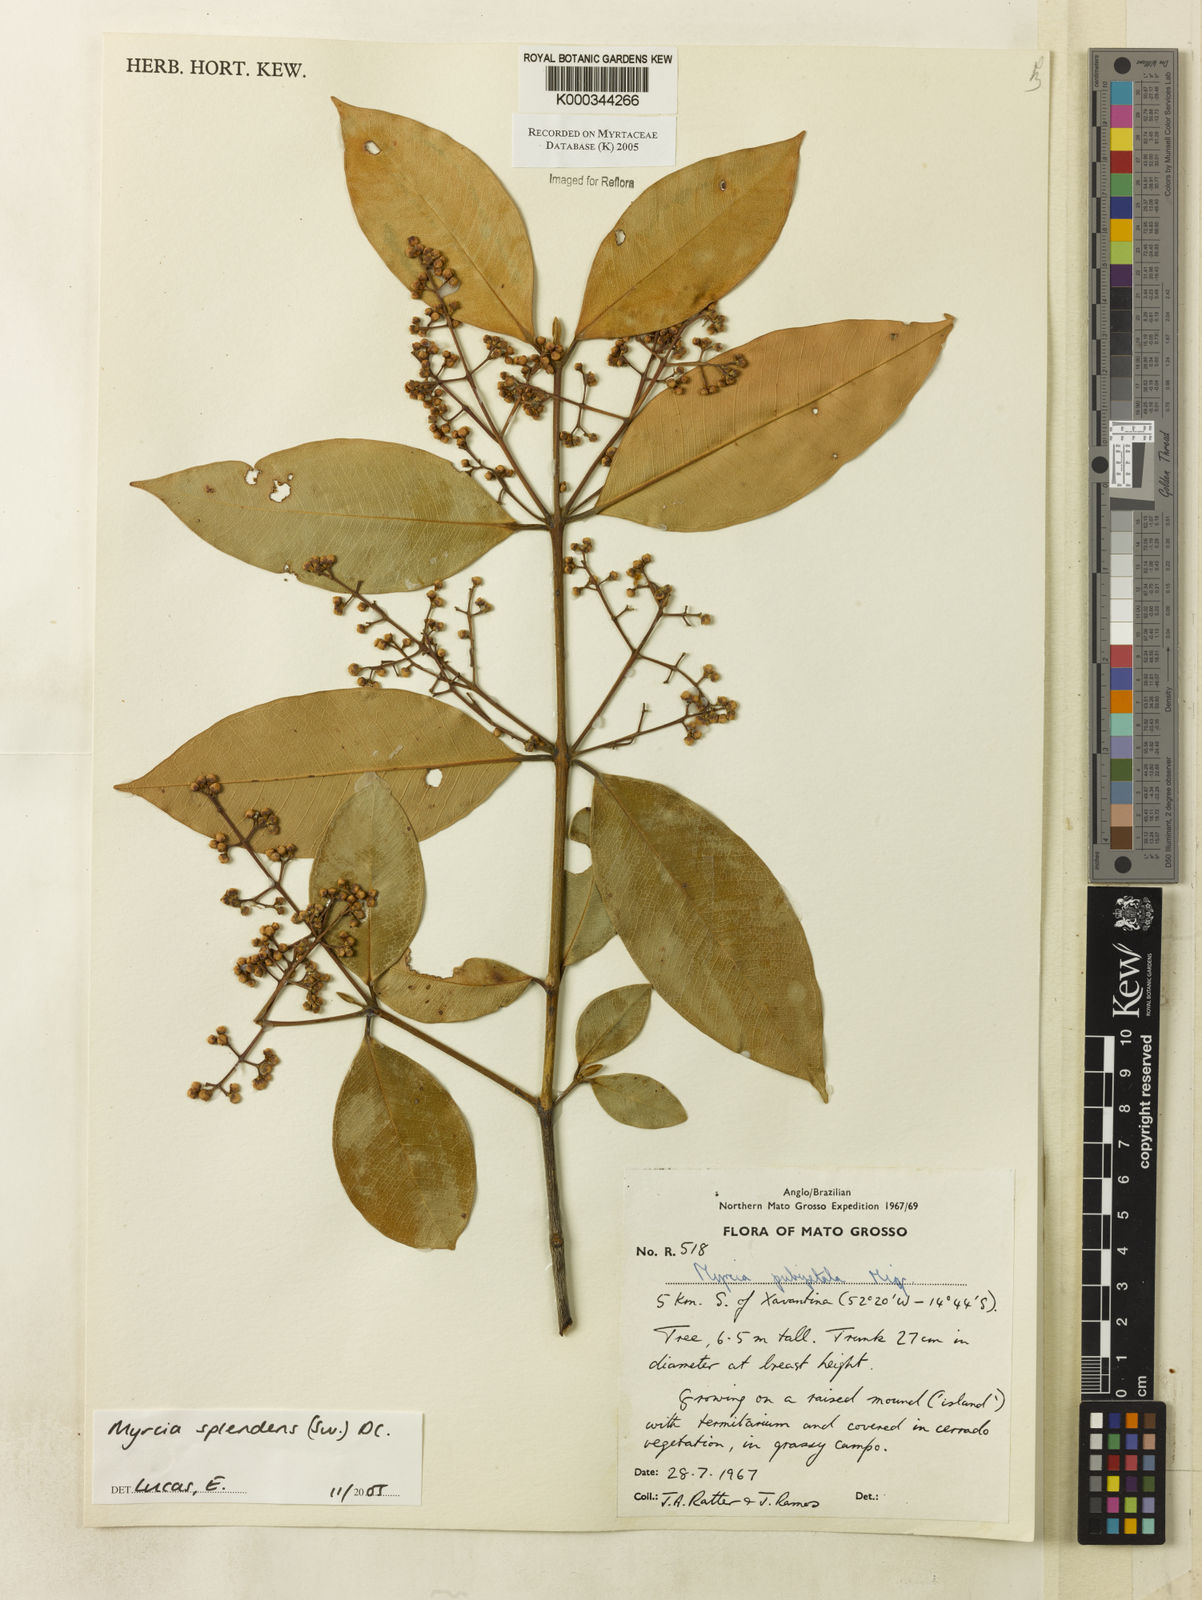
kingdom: Plantae
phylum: Tracheophyta
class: Magnoliopsida
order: Myrtales
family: Myrtaceae
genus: Myrcia
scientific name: Myrcia splendens
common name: Surinam cherry
